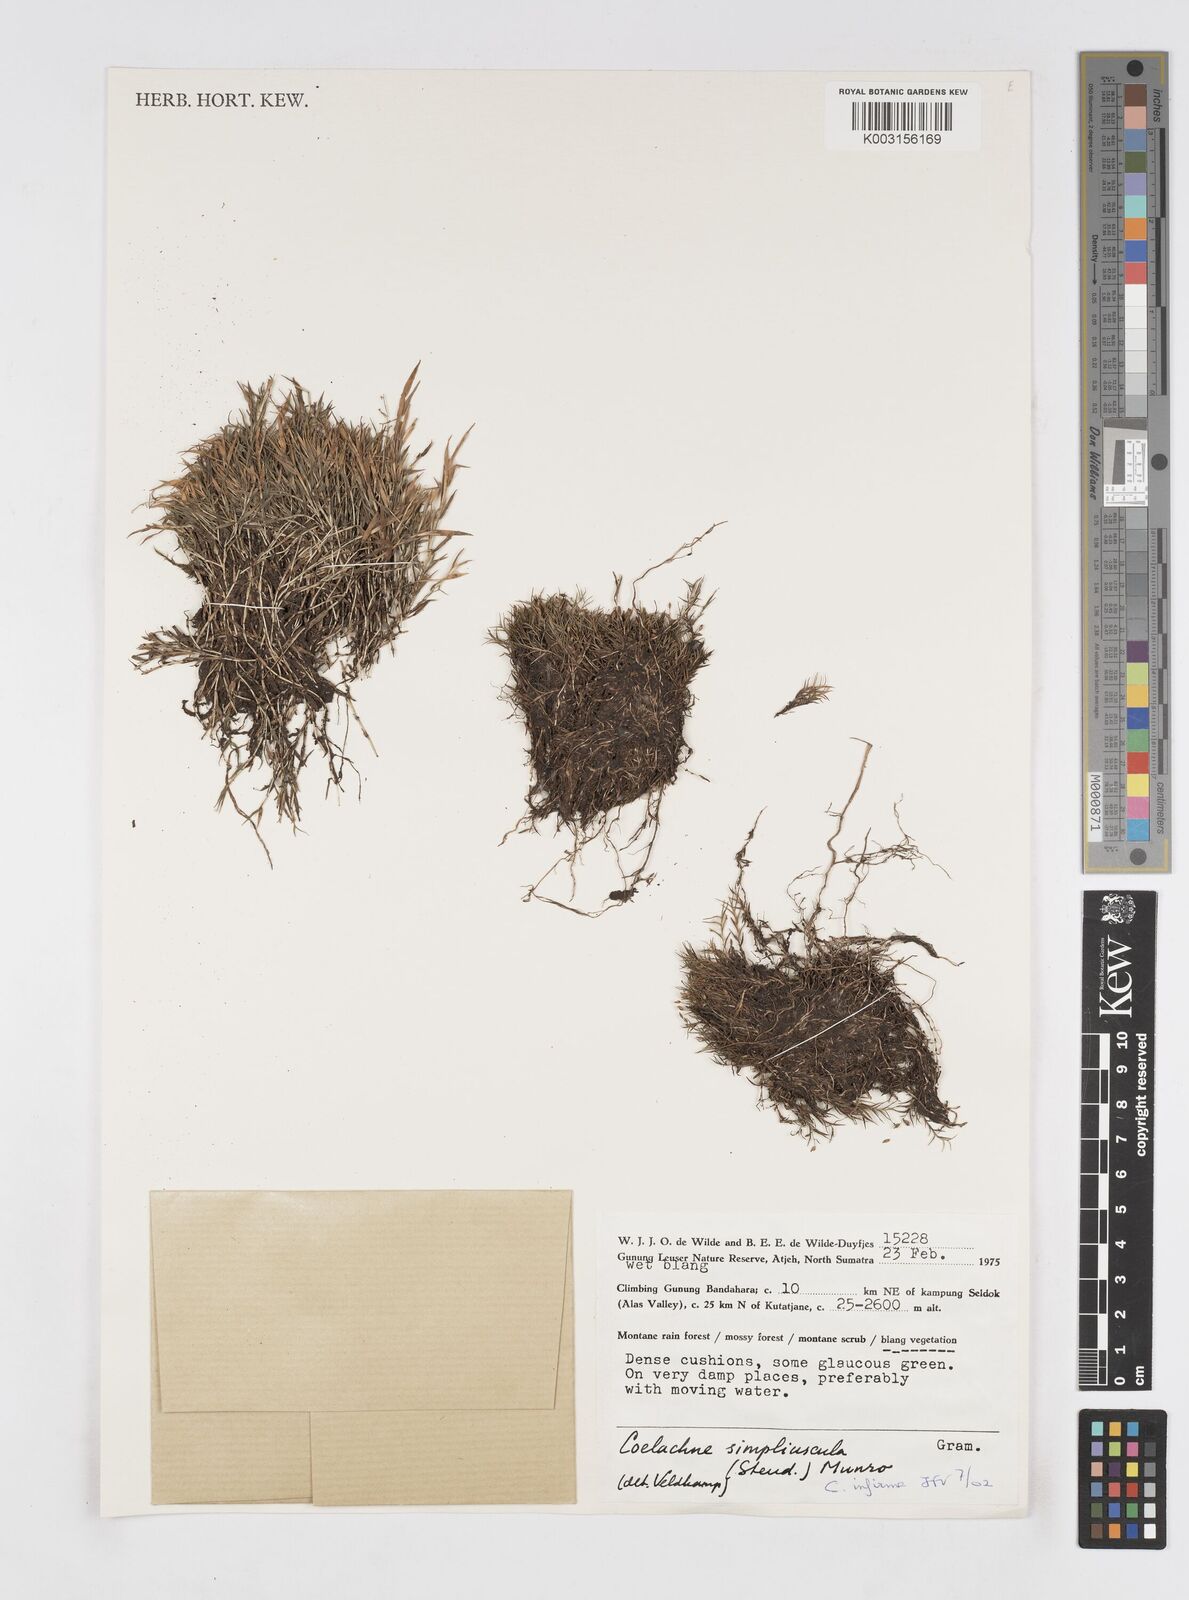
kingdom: Plantae
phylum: Tracheophyta
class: Liliopsida
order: Poales
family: Poaceae
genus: Coelachne
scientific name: Coelachne infirma
